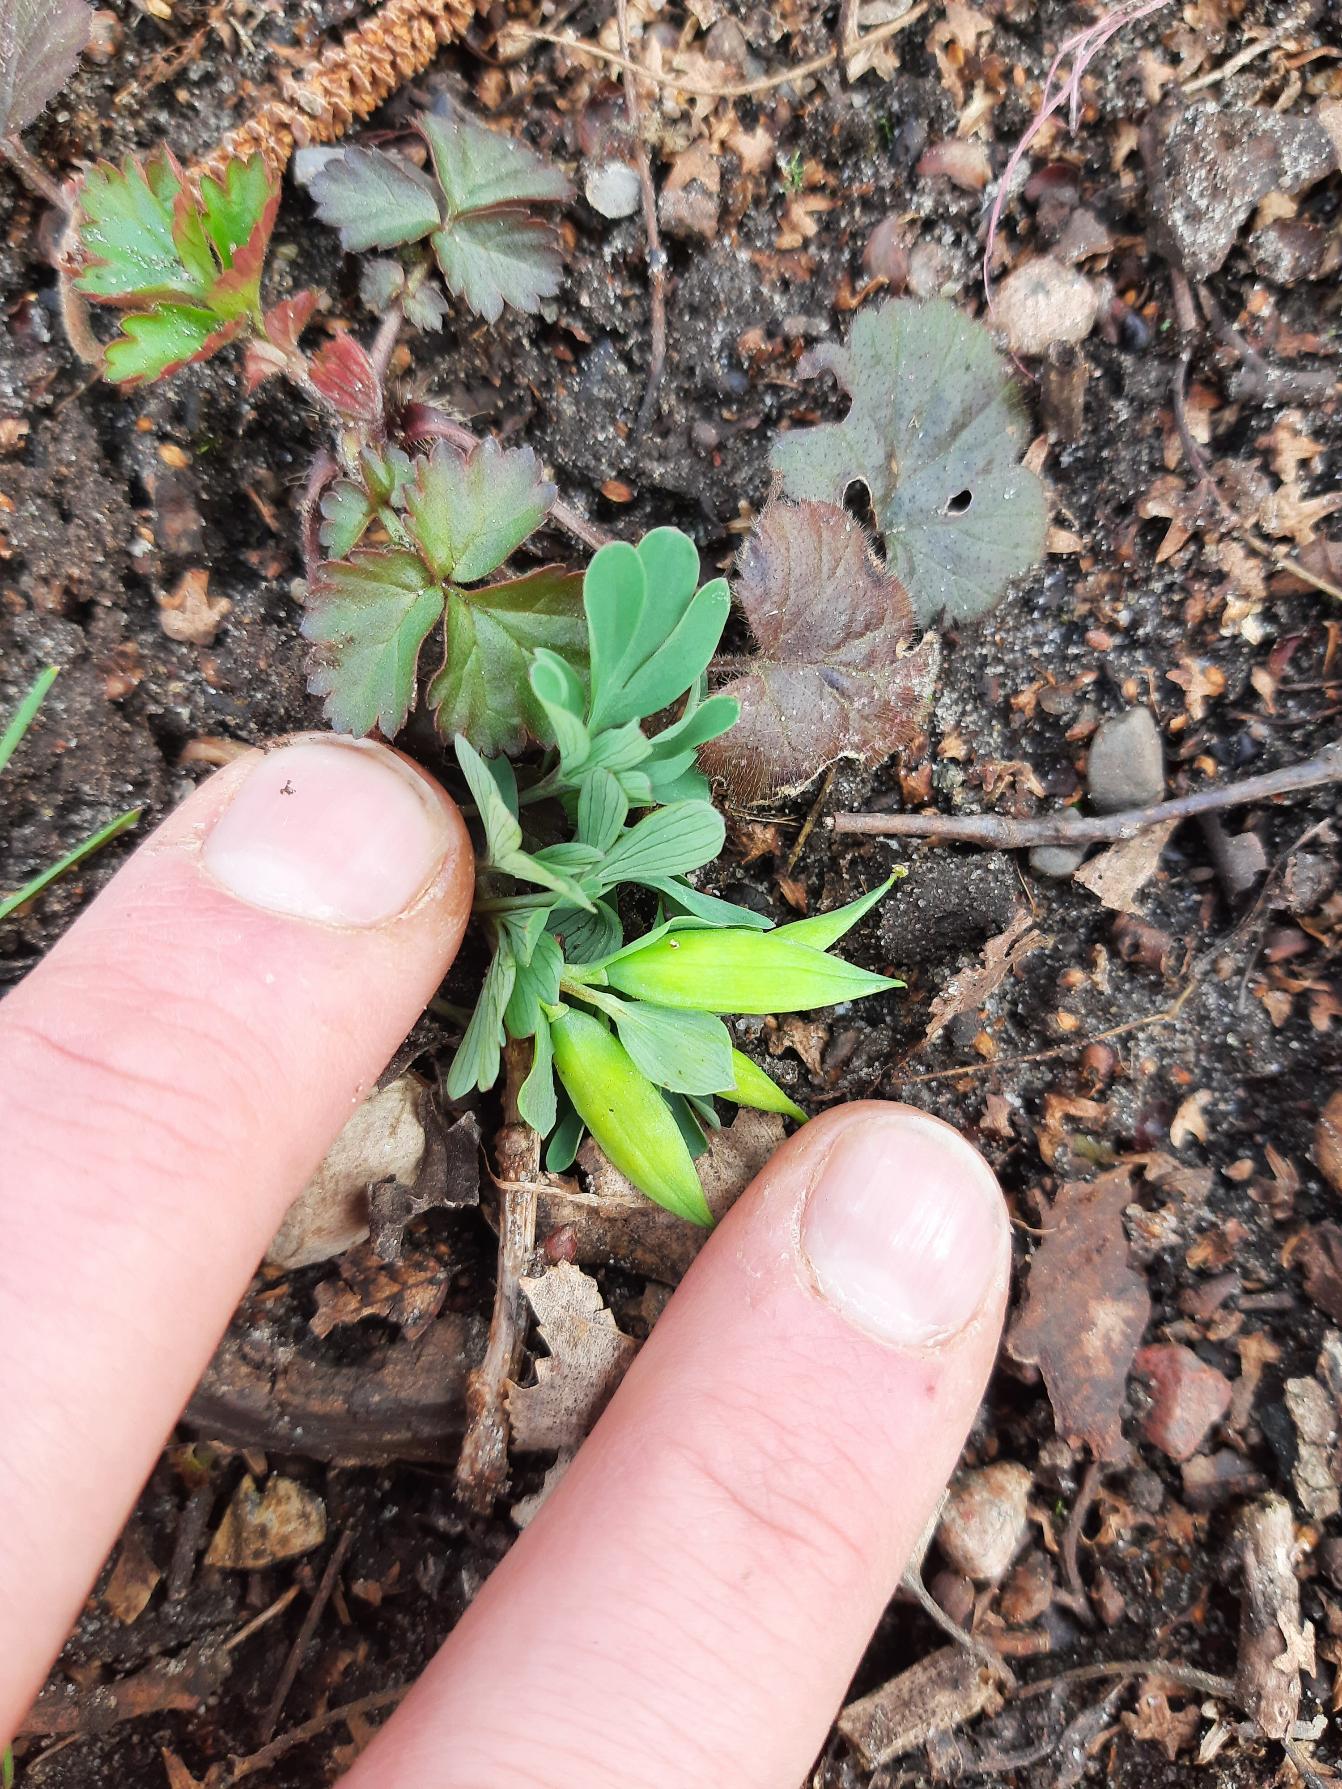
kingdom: Plantae
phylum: Tracheophyta
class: Magnoliopsida
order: Ranunculales
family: Papaveraceae
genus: Corydalis
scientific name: Corydalis intermedia
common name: Liden lærkespore
